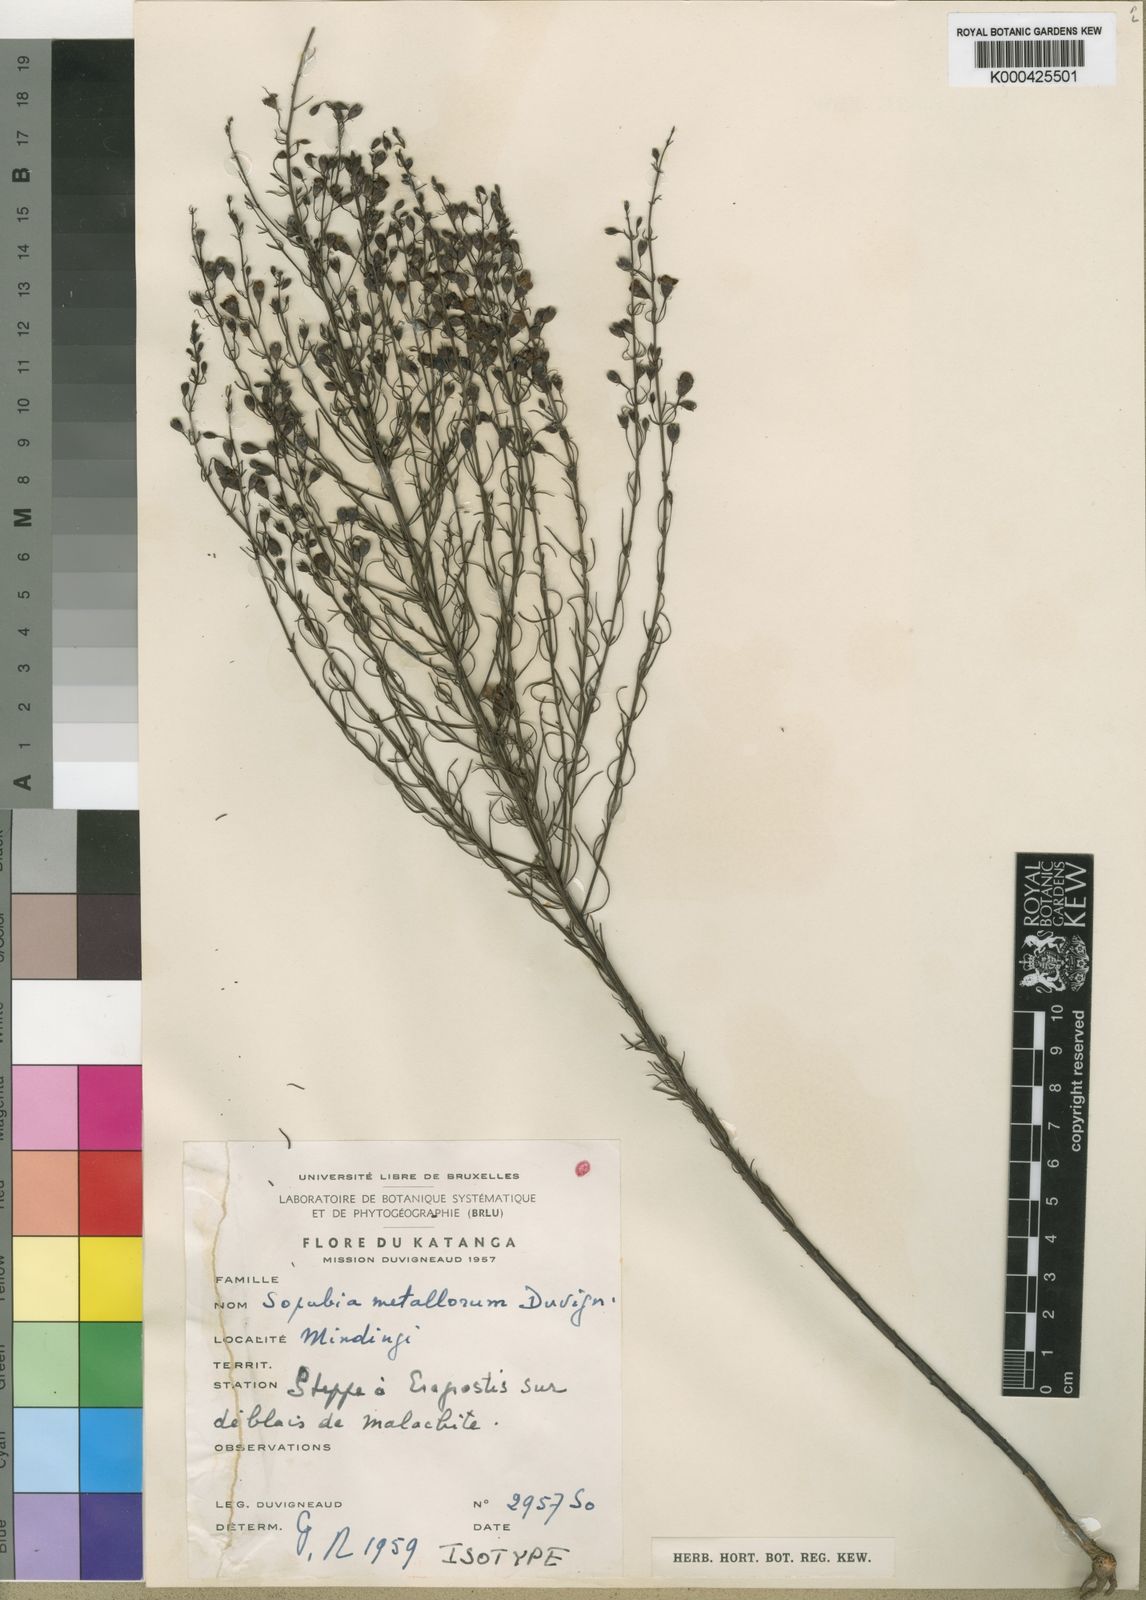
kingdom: Plantae
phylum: Tracheophyta
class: Magnoliopsida
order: Lamiales
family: Orobanchaceae
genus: Sopubia
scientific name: Sopubia mannii
